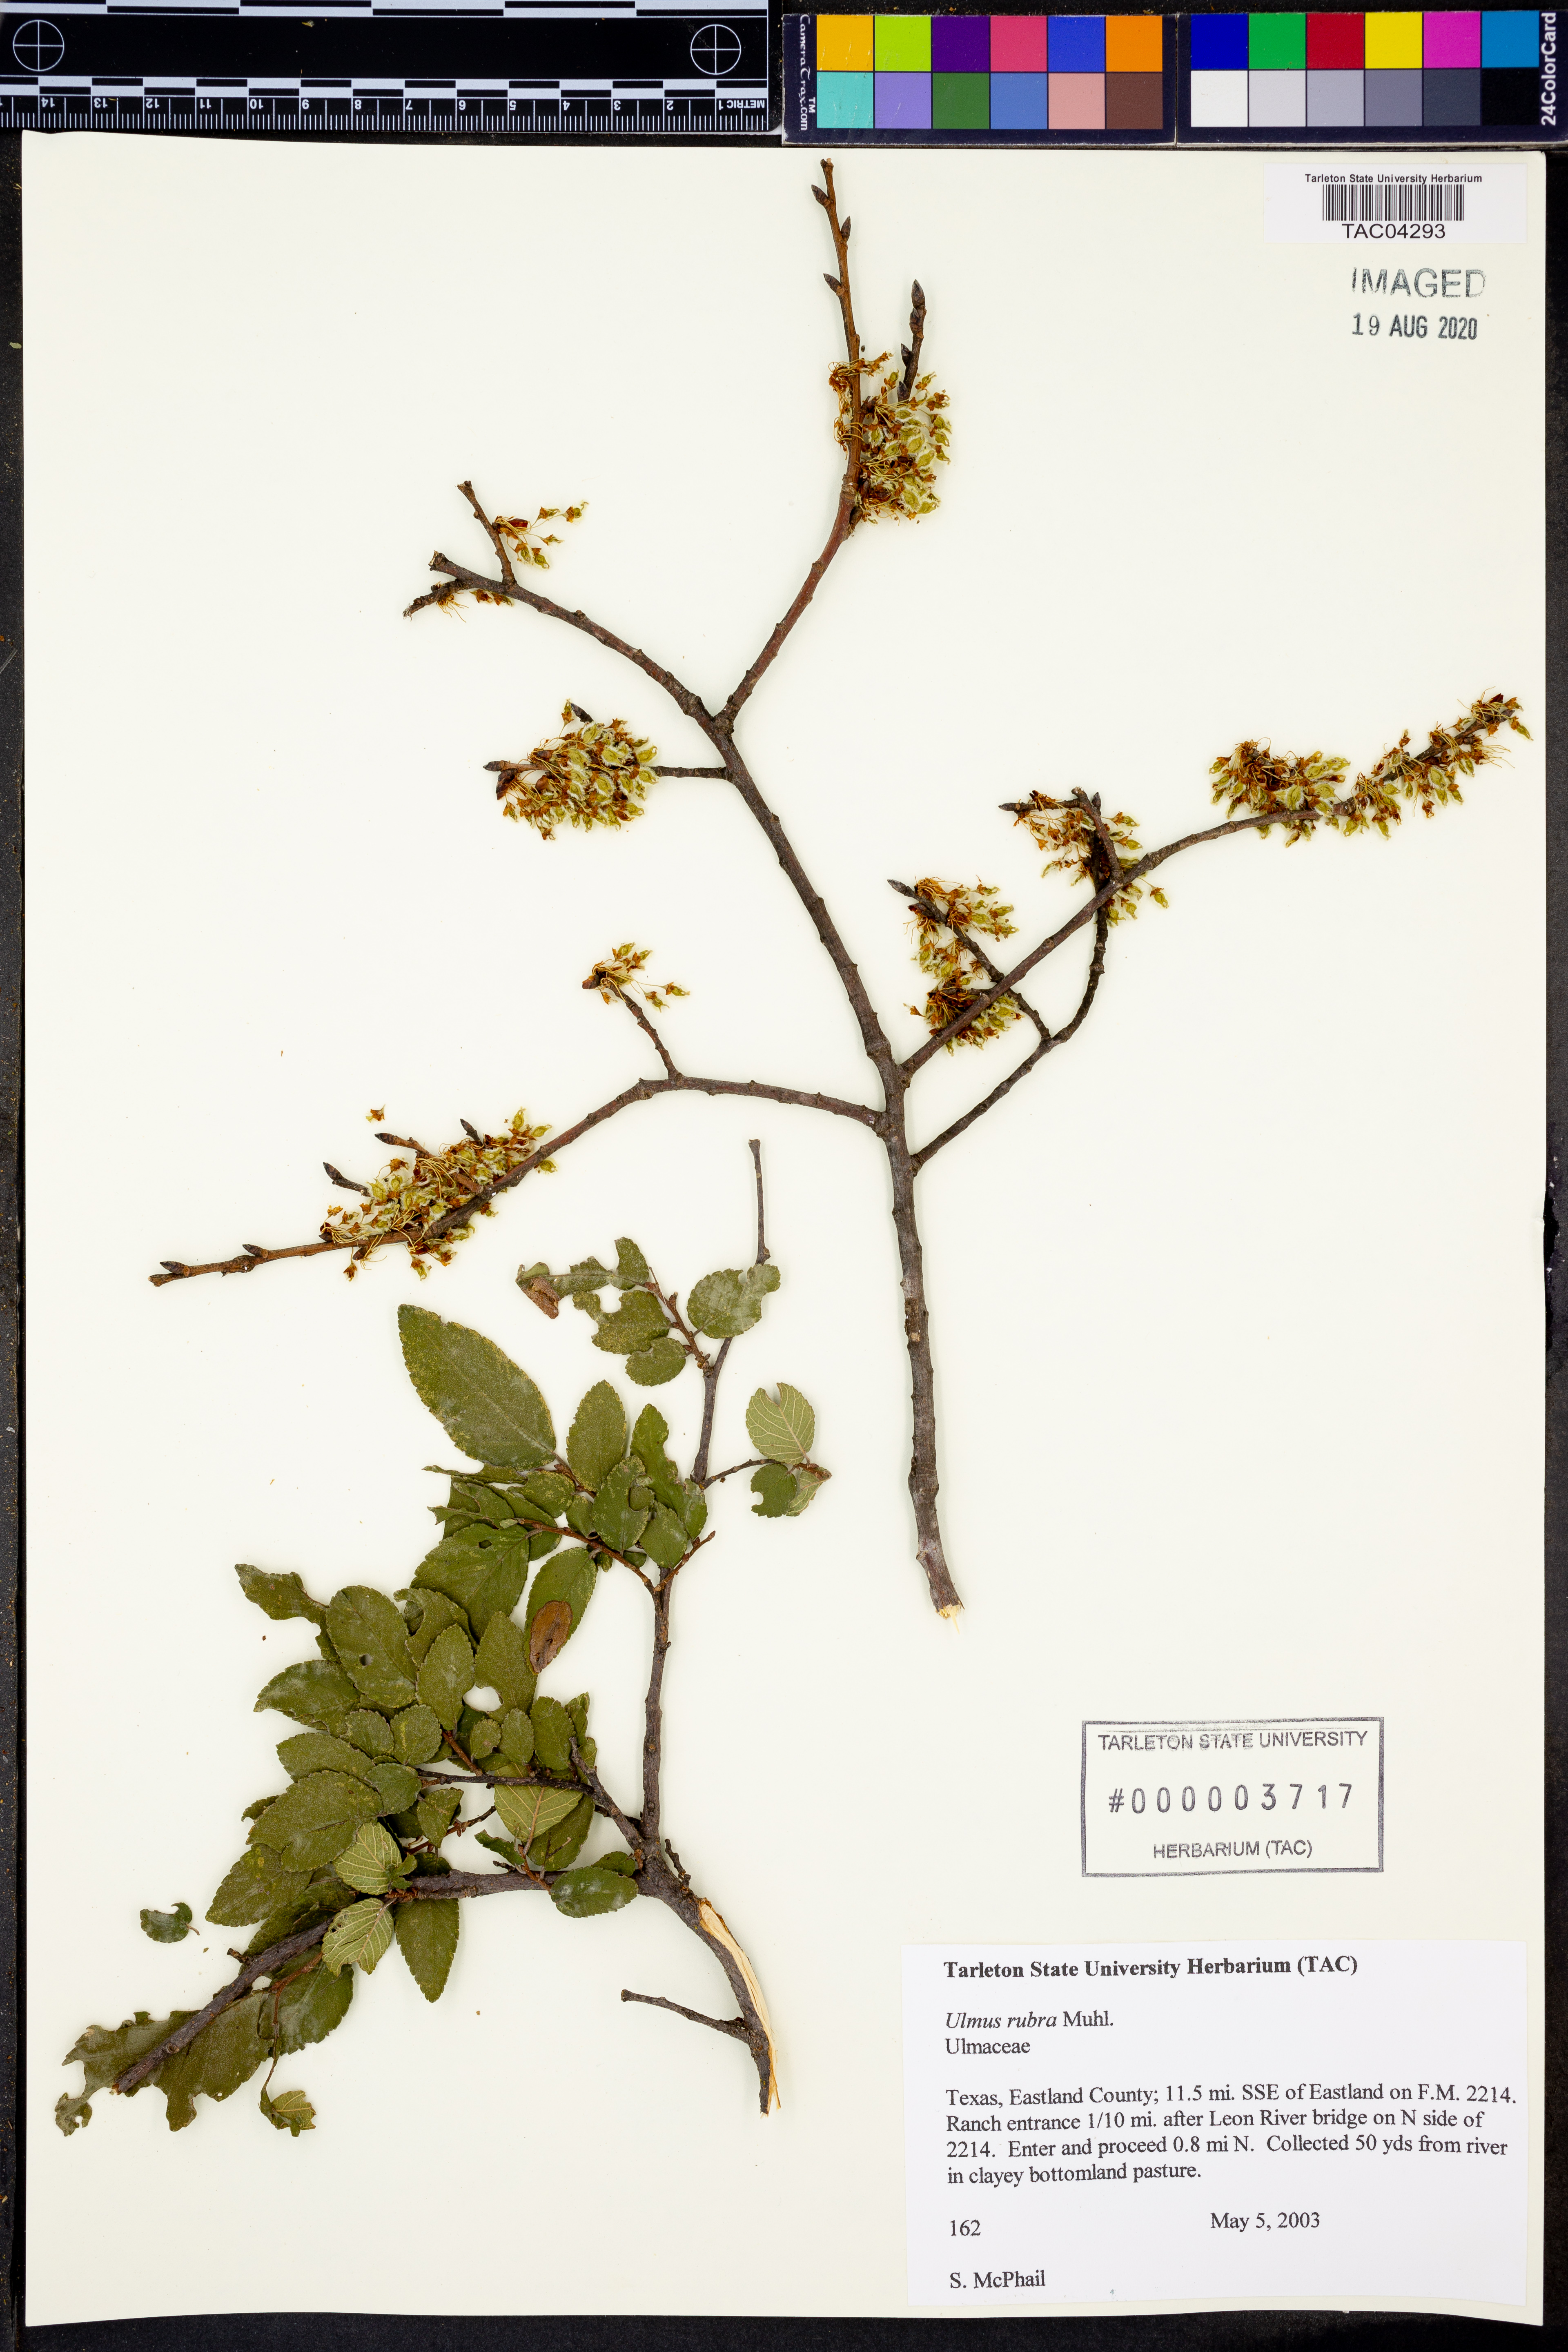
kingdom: Plantae
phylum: Tracheophyta
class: Magnoliopsida
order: Rosales
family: Ulmaceae
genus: Ulmus
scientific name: Ulmus rubra
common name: Slippery elm
